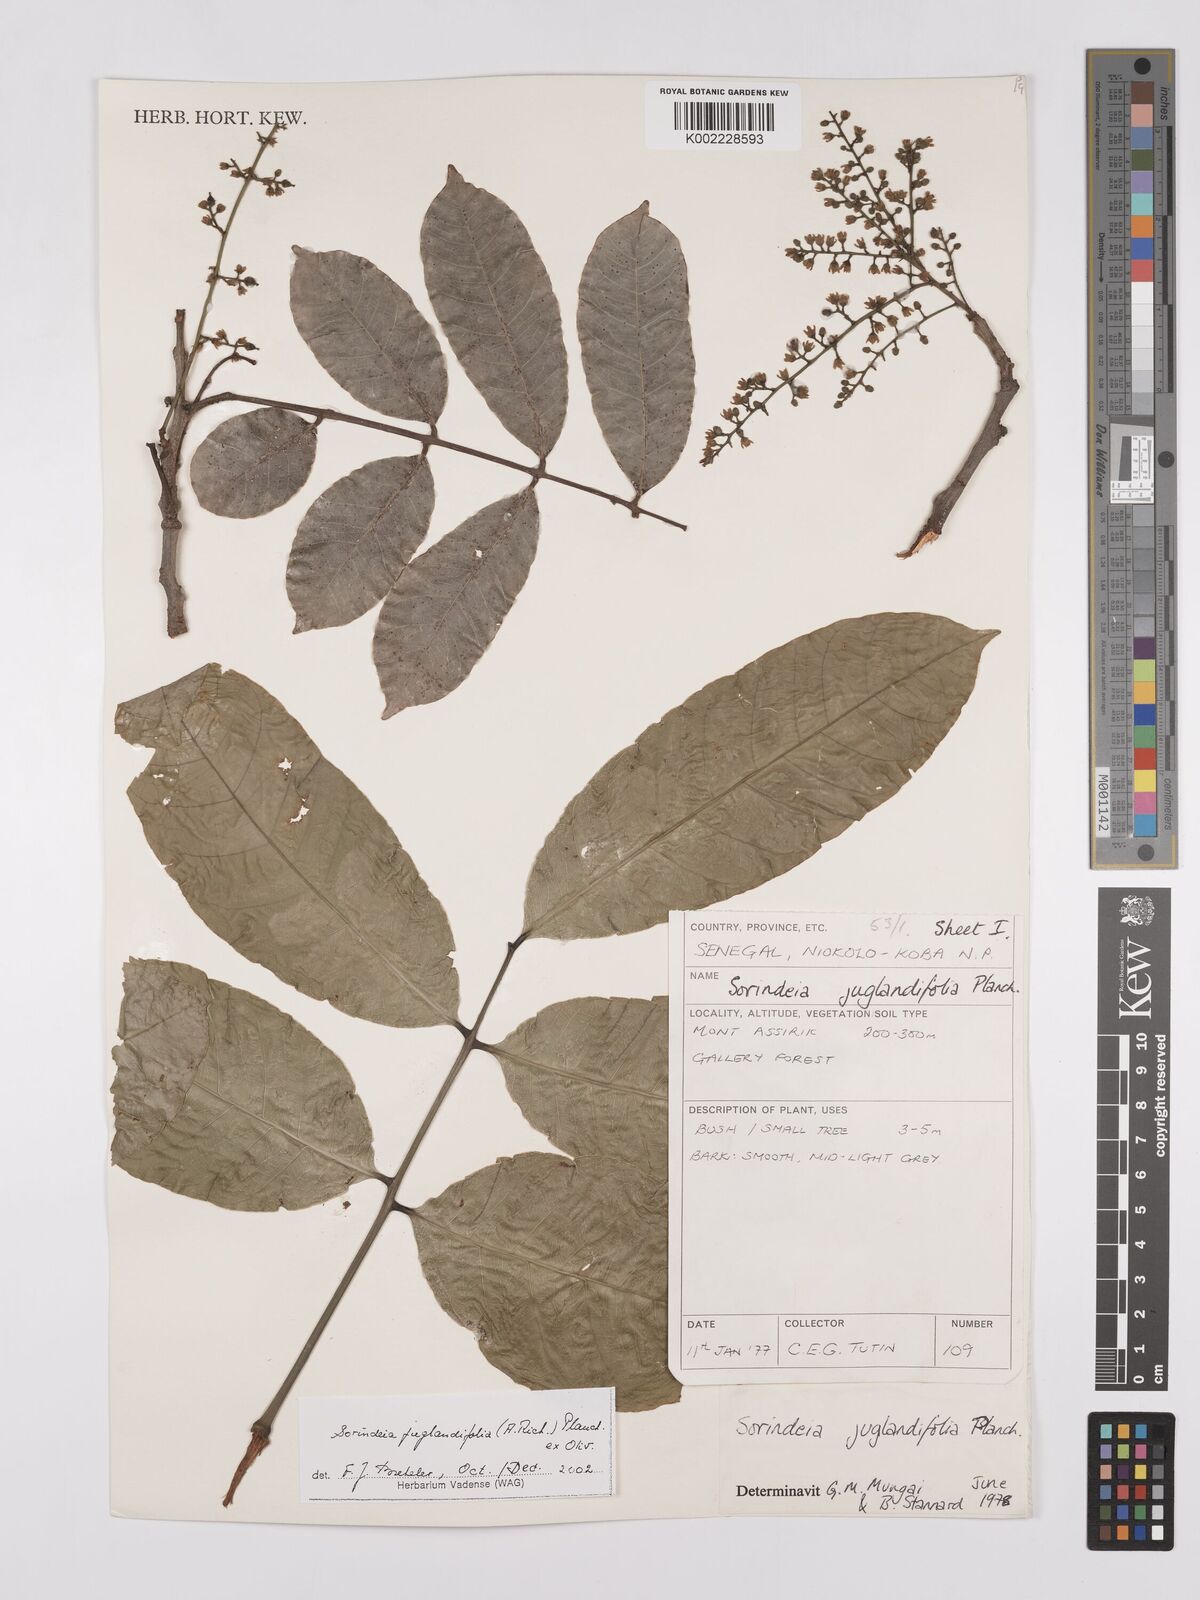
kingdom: Plantae
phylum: Tracheophyta
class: Magnoliopsida
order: Sapindales
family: Anacardiaceae
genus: Sorindeia
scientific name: Sorindeia juglandifolia
